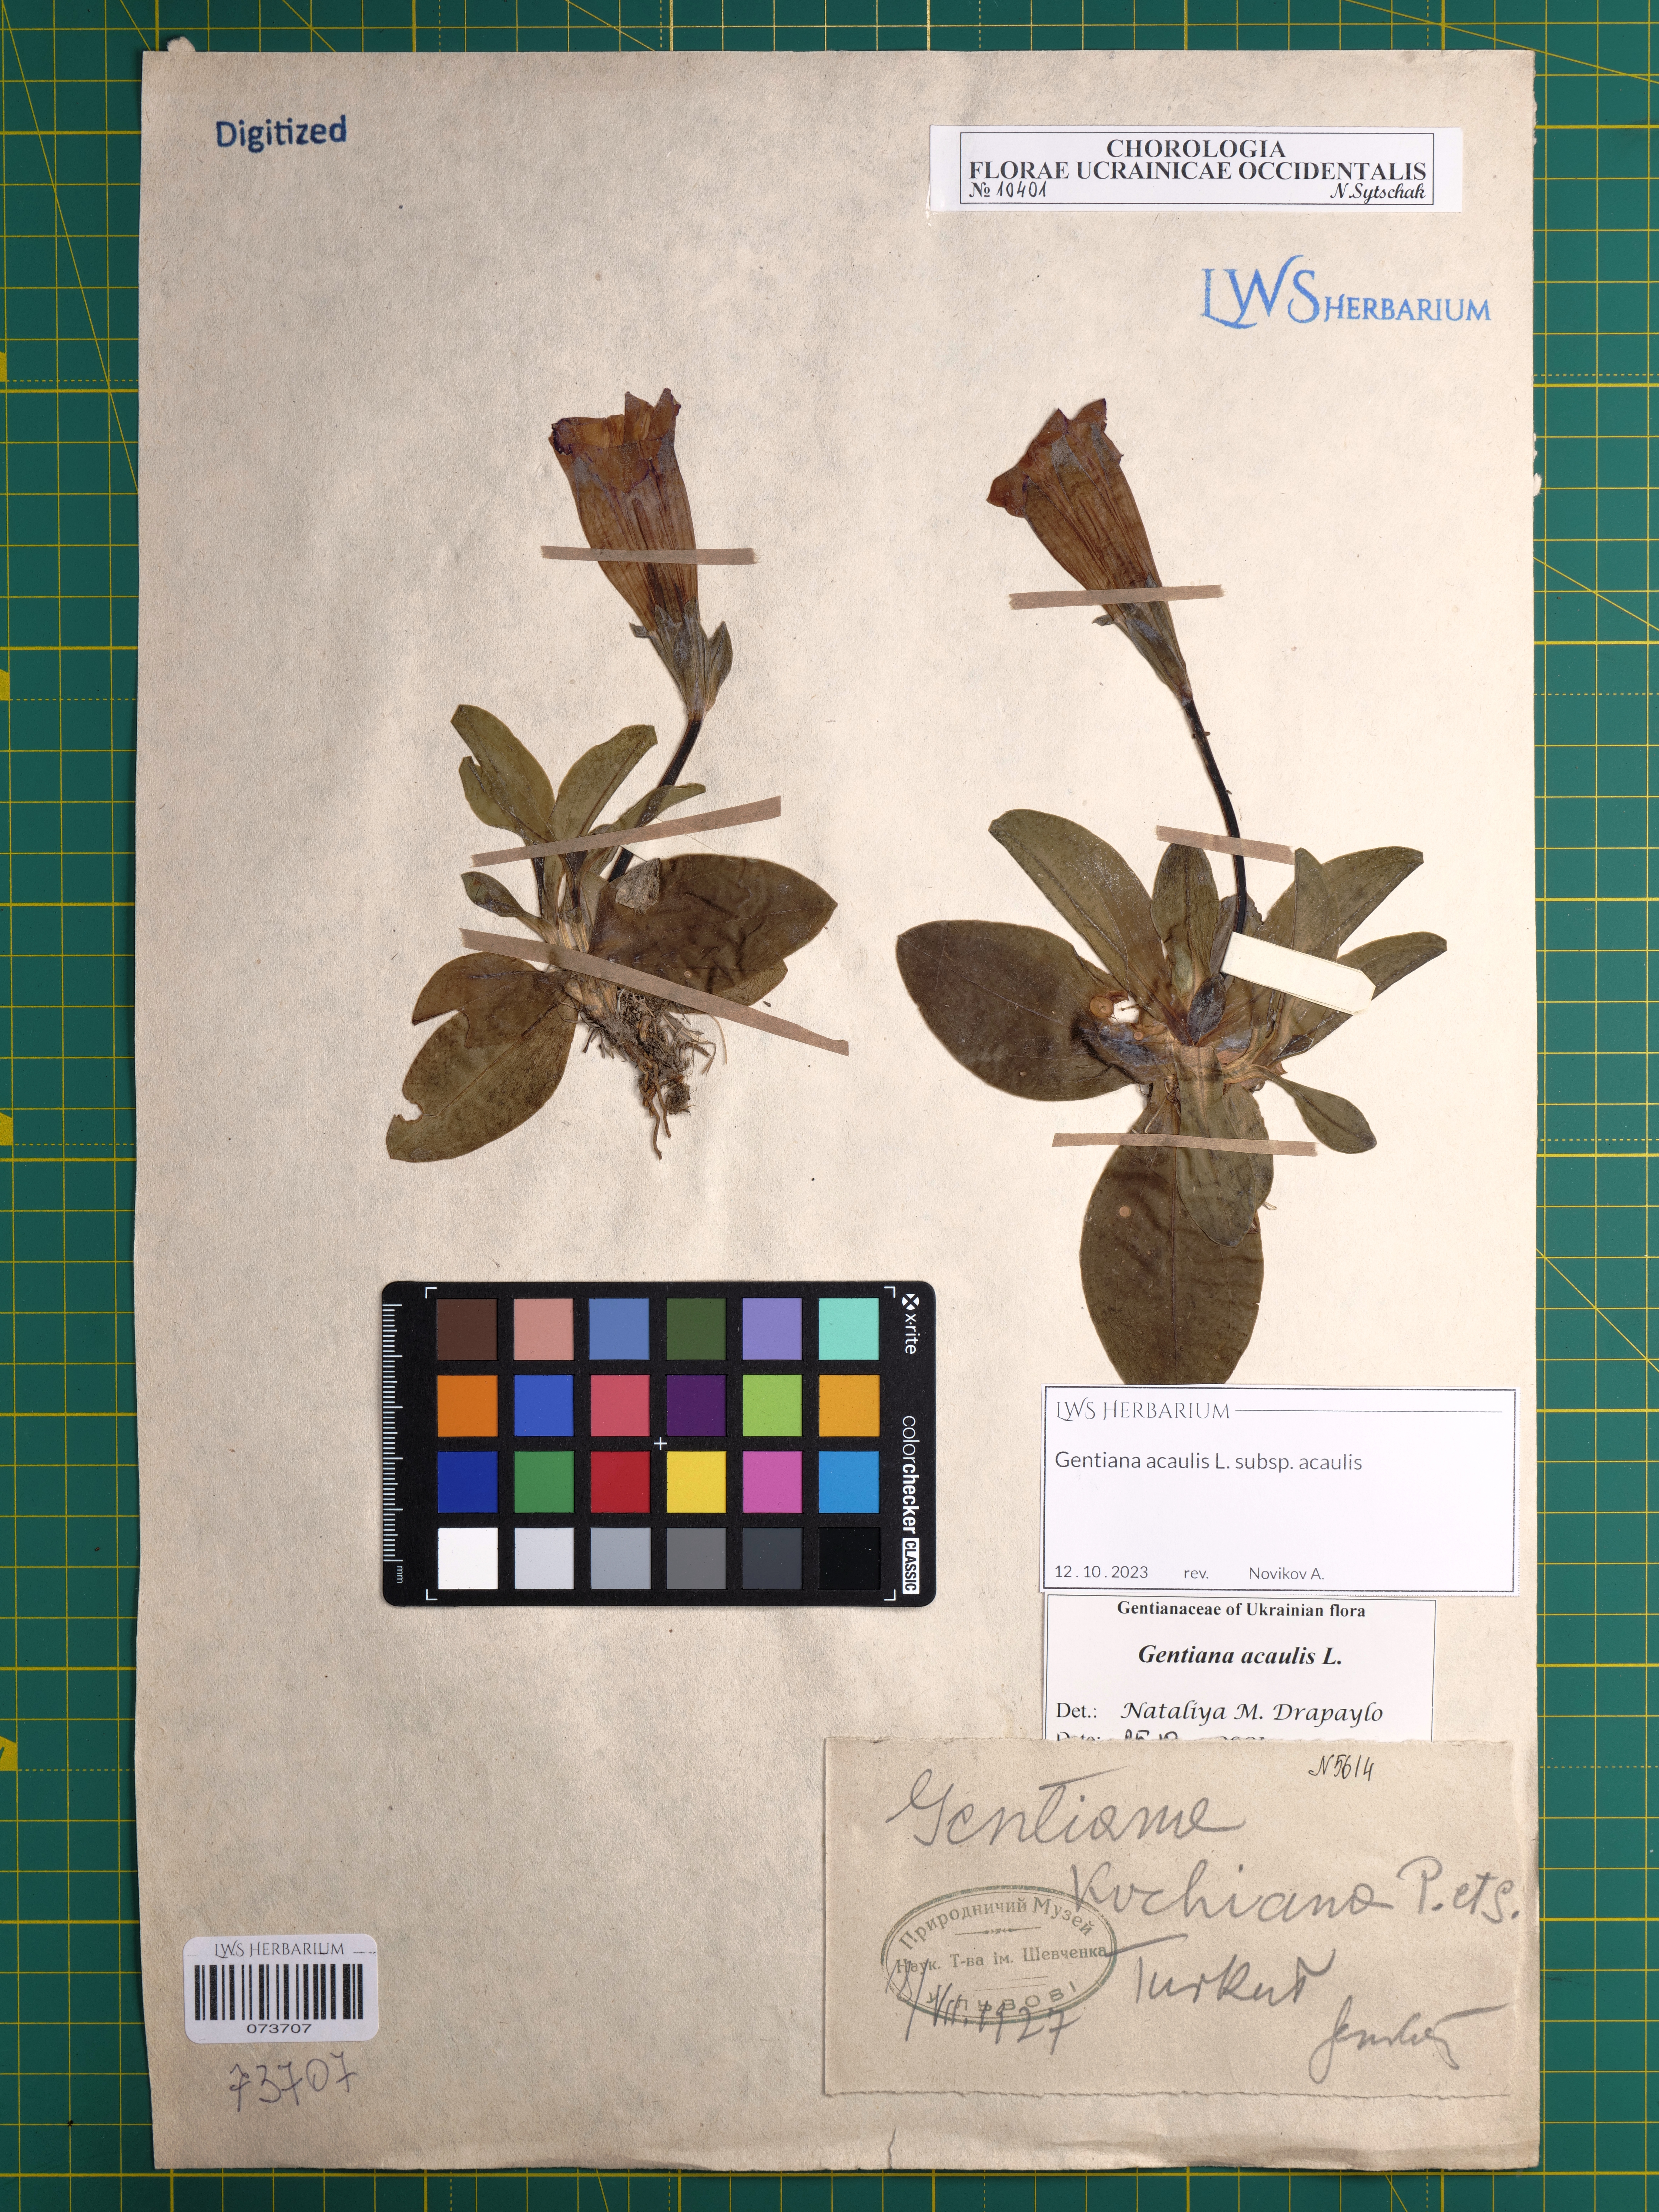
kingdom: Plantae
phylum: Tracheophyta
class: Magnoliopsida
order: Gentianales
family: Gentianaceae
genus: Gentiana
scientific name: Gentiana acaulis
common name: Trumpet gentian
